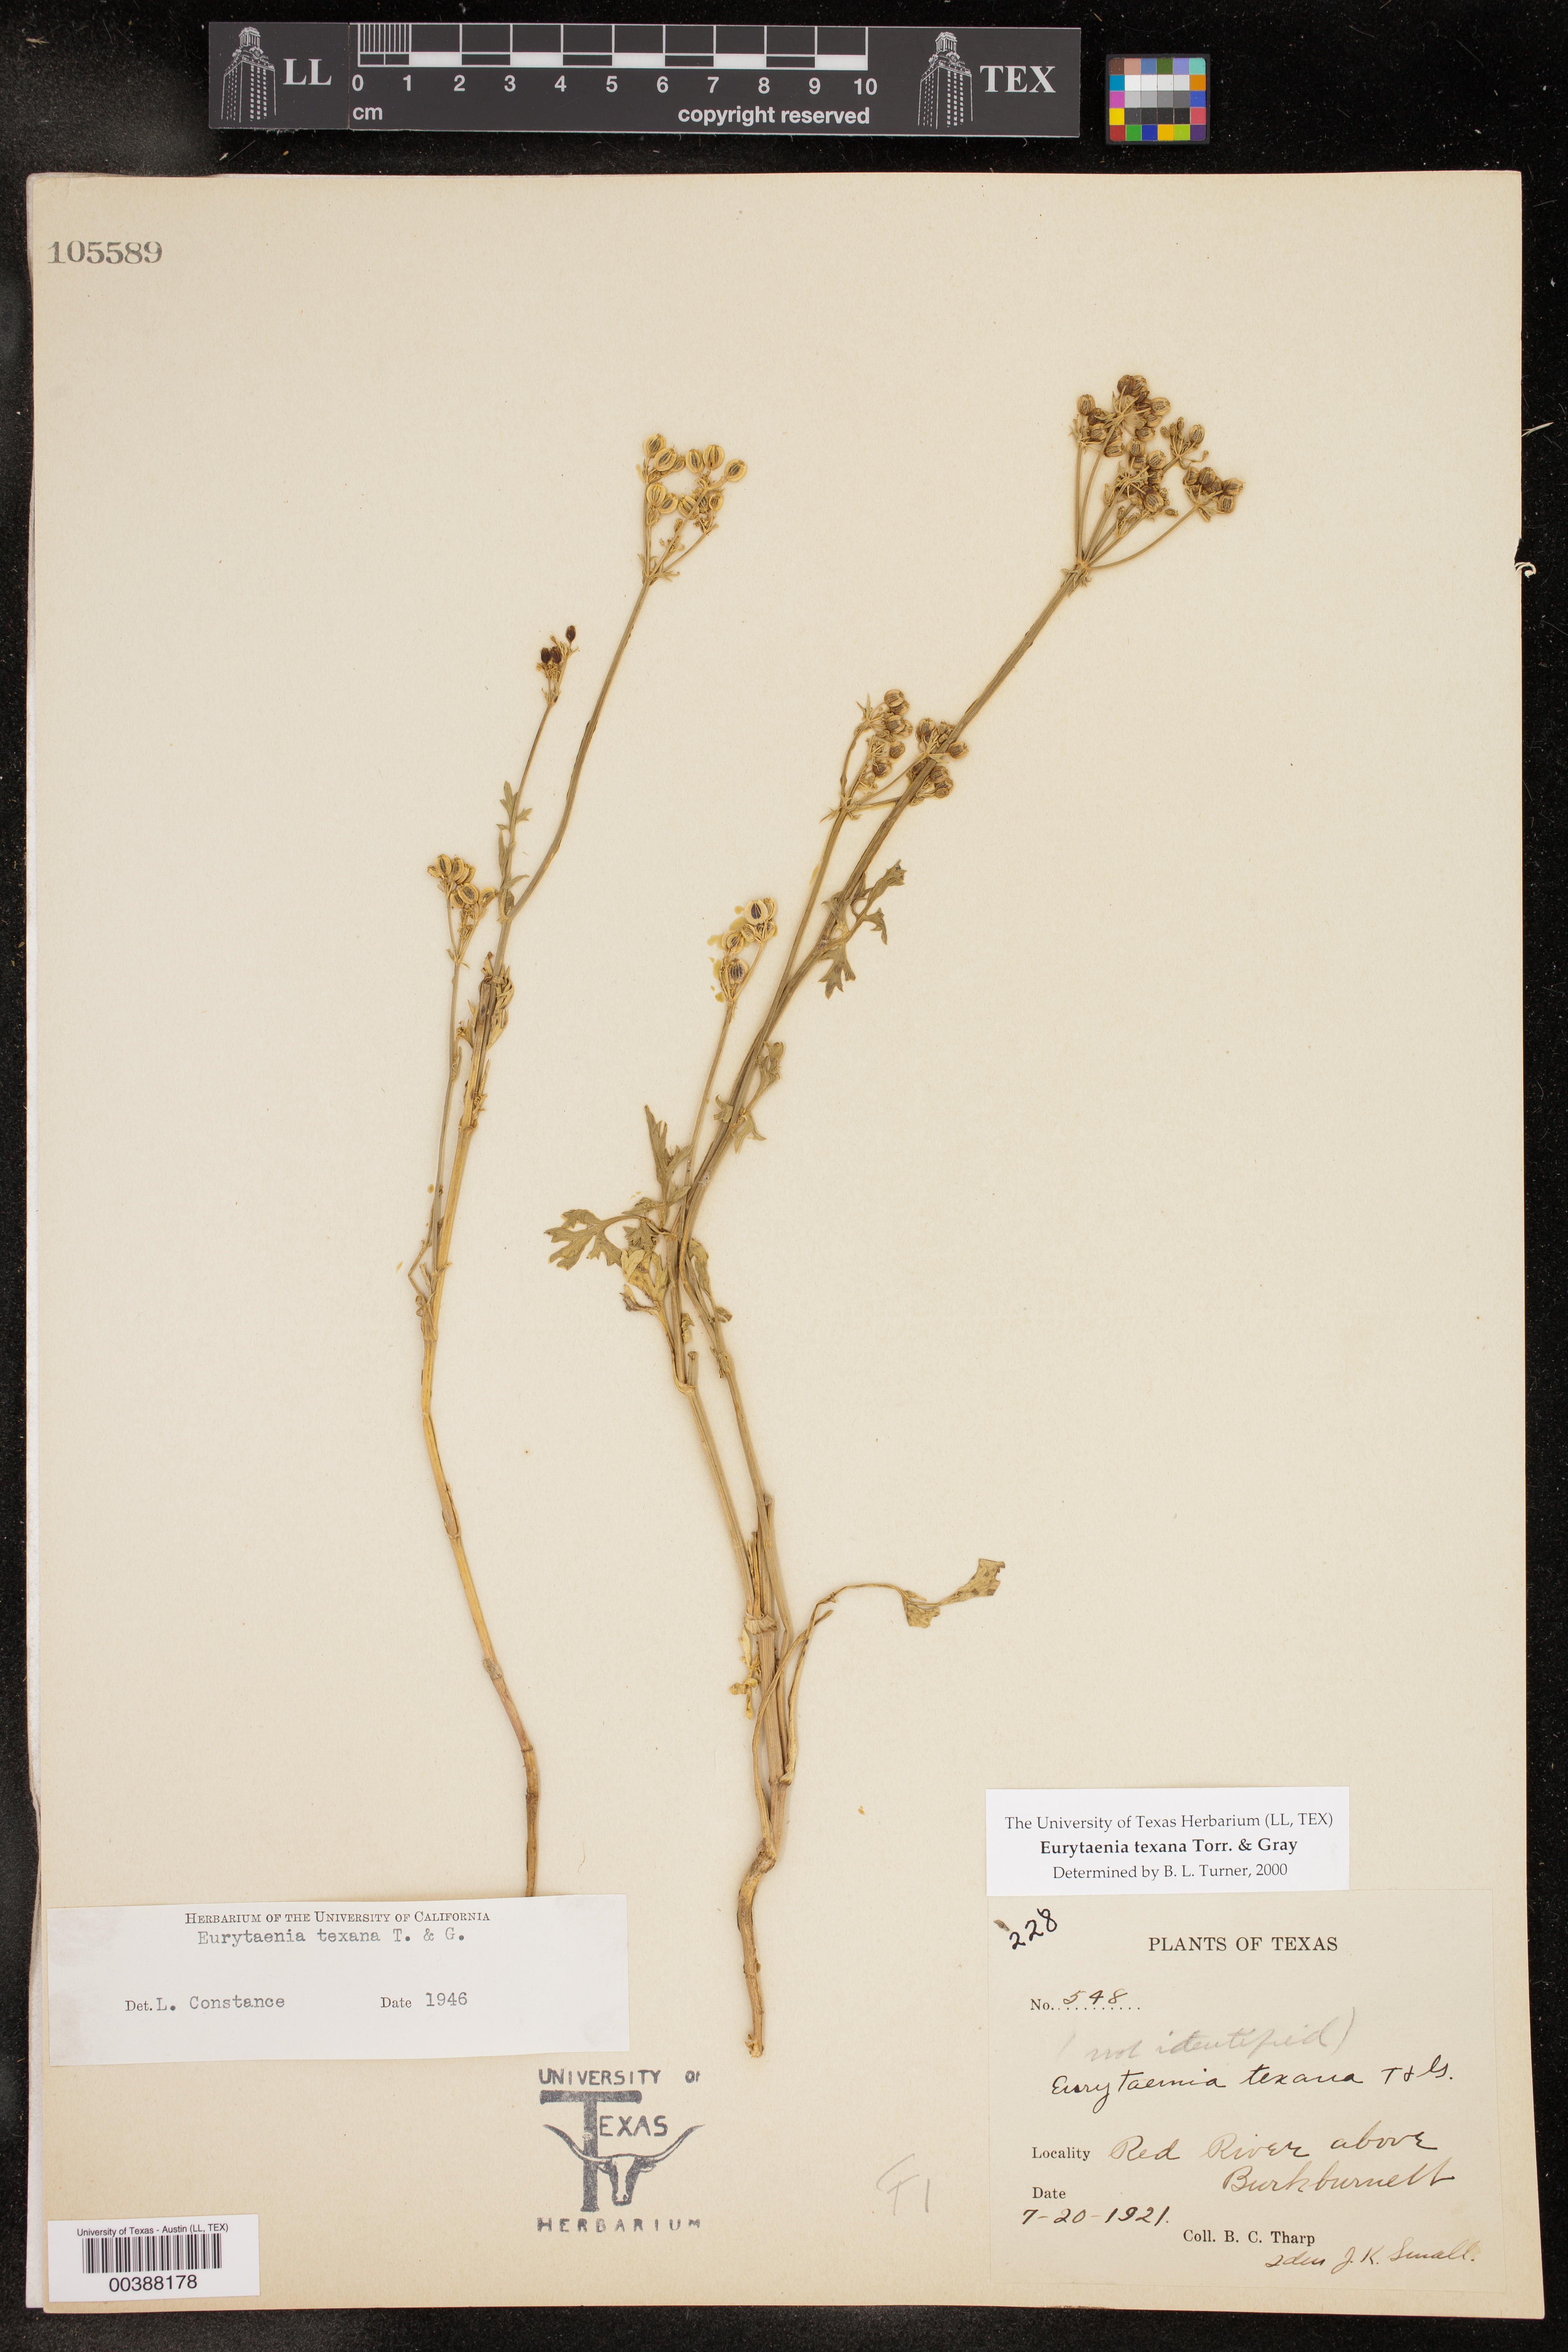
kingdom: Plantae
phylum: Tracheophyta
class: Magnoliopsida
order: Apiales
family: Apiaceae
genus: Eurytaenia
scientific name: Eurytaenia texana
